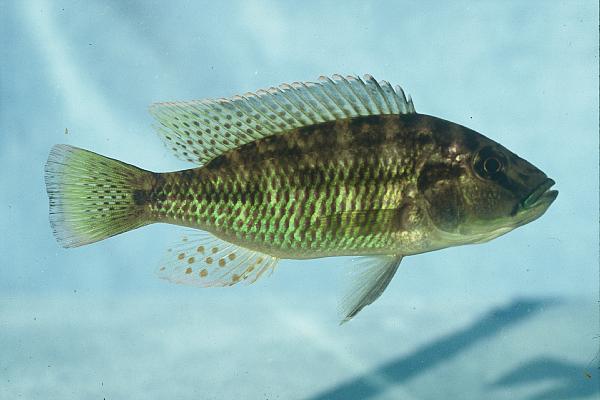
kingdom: Animalia
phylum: Chordata
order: Perciformes
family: Cichlidae
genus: Pharyngochromis
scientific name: Pharyngochromis acuticeps
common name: Zambezi happy
